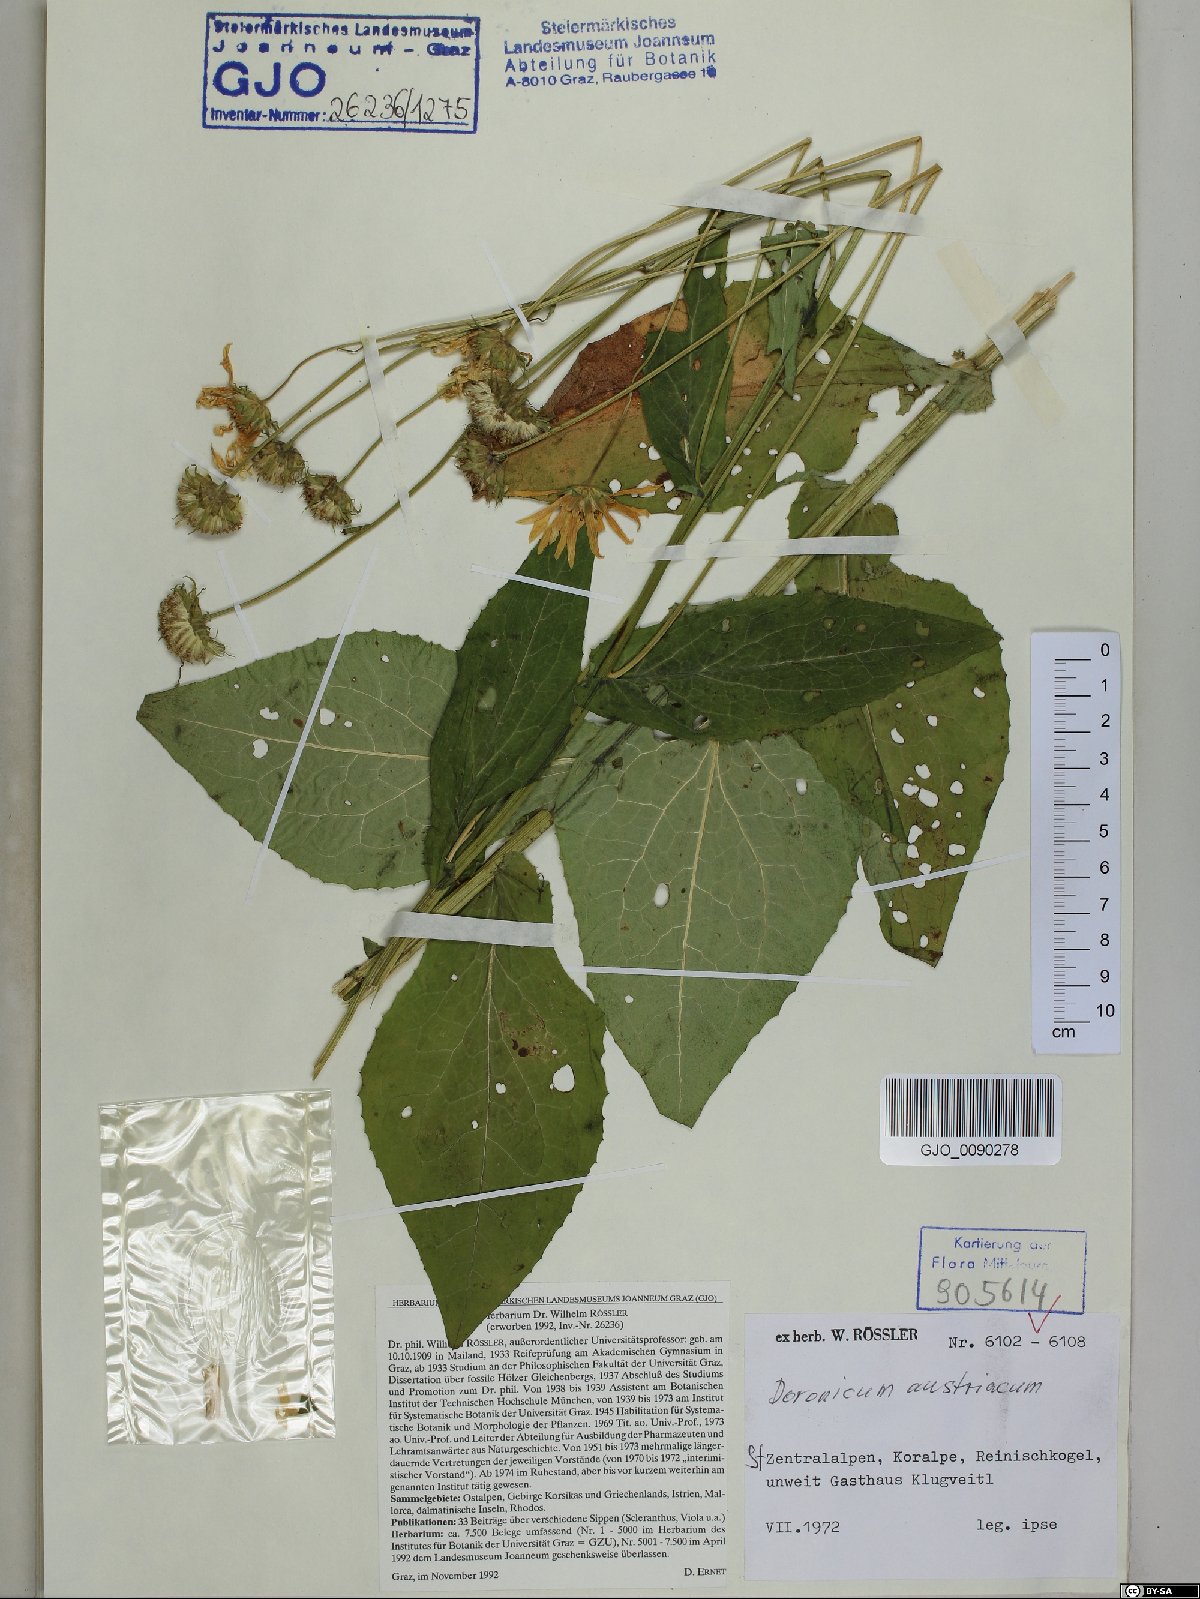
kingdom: Plantae
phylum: Tracheophyta
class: Magnoliopsida
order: Asterales
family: Asteraceae
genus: Doronicum
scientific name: Doronicum austriacum
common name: Austrian leopard's-bane
